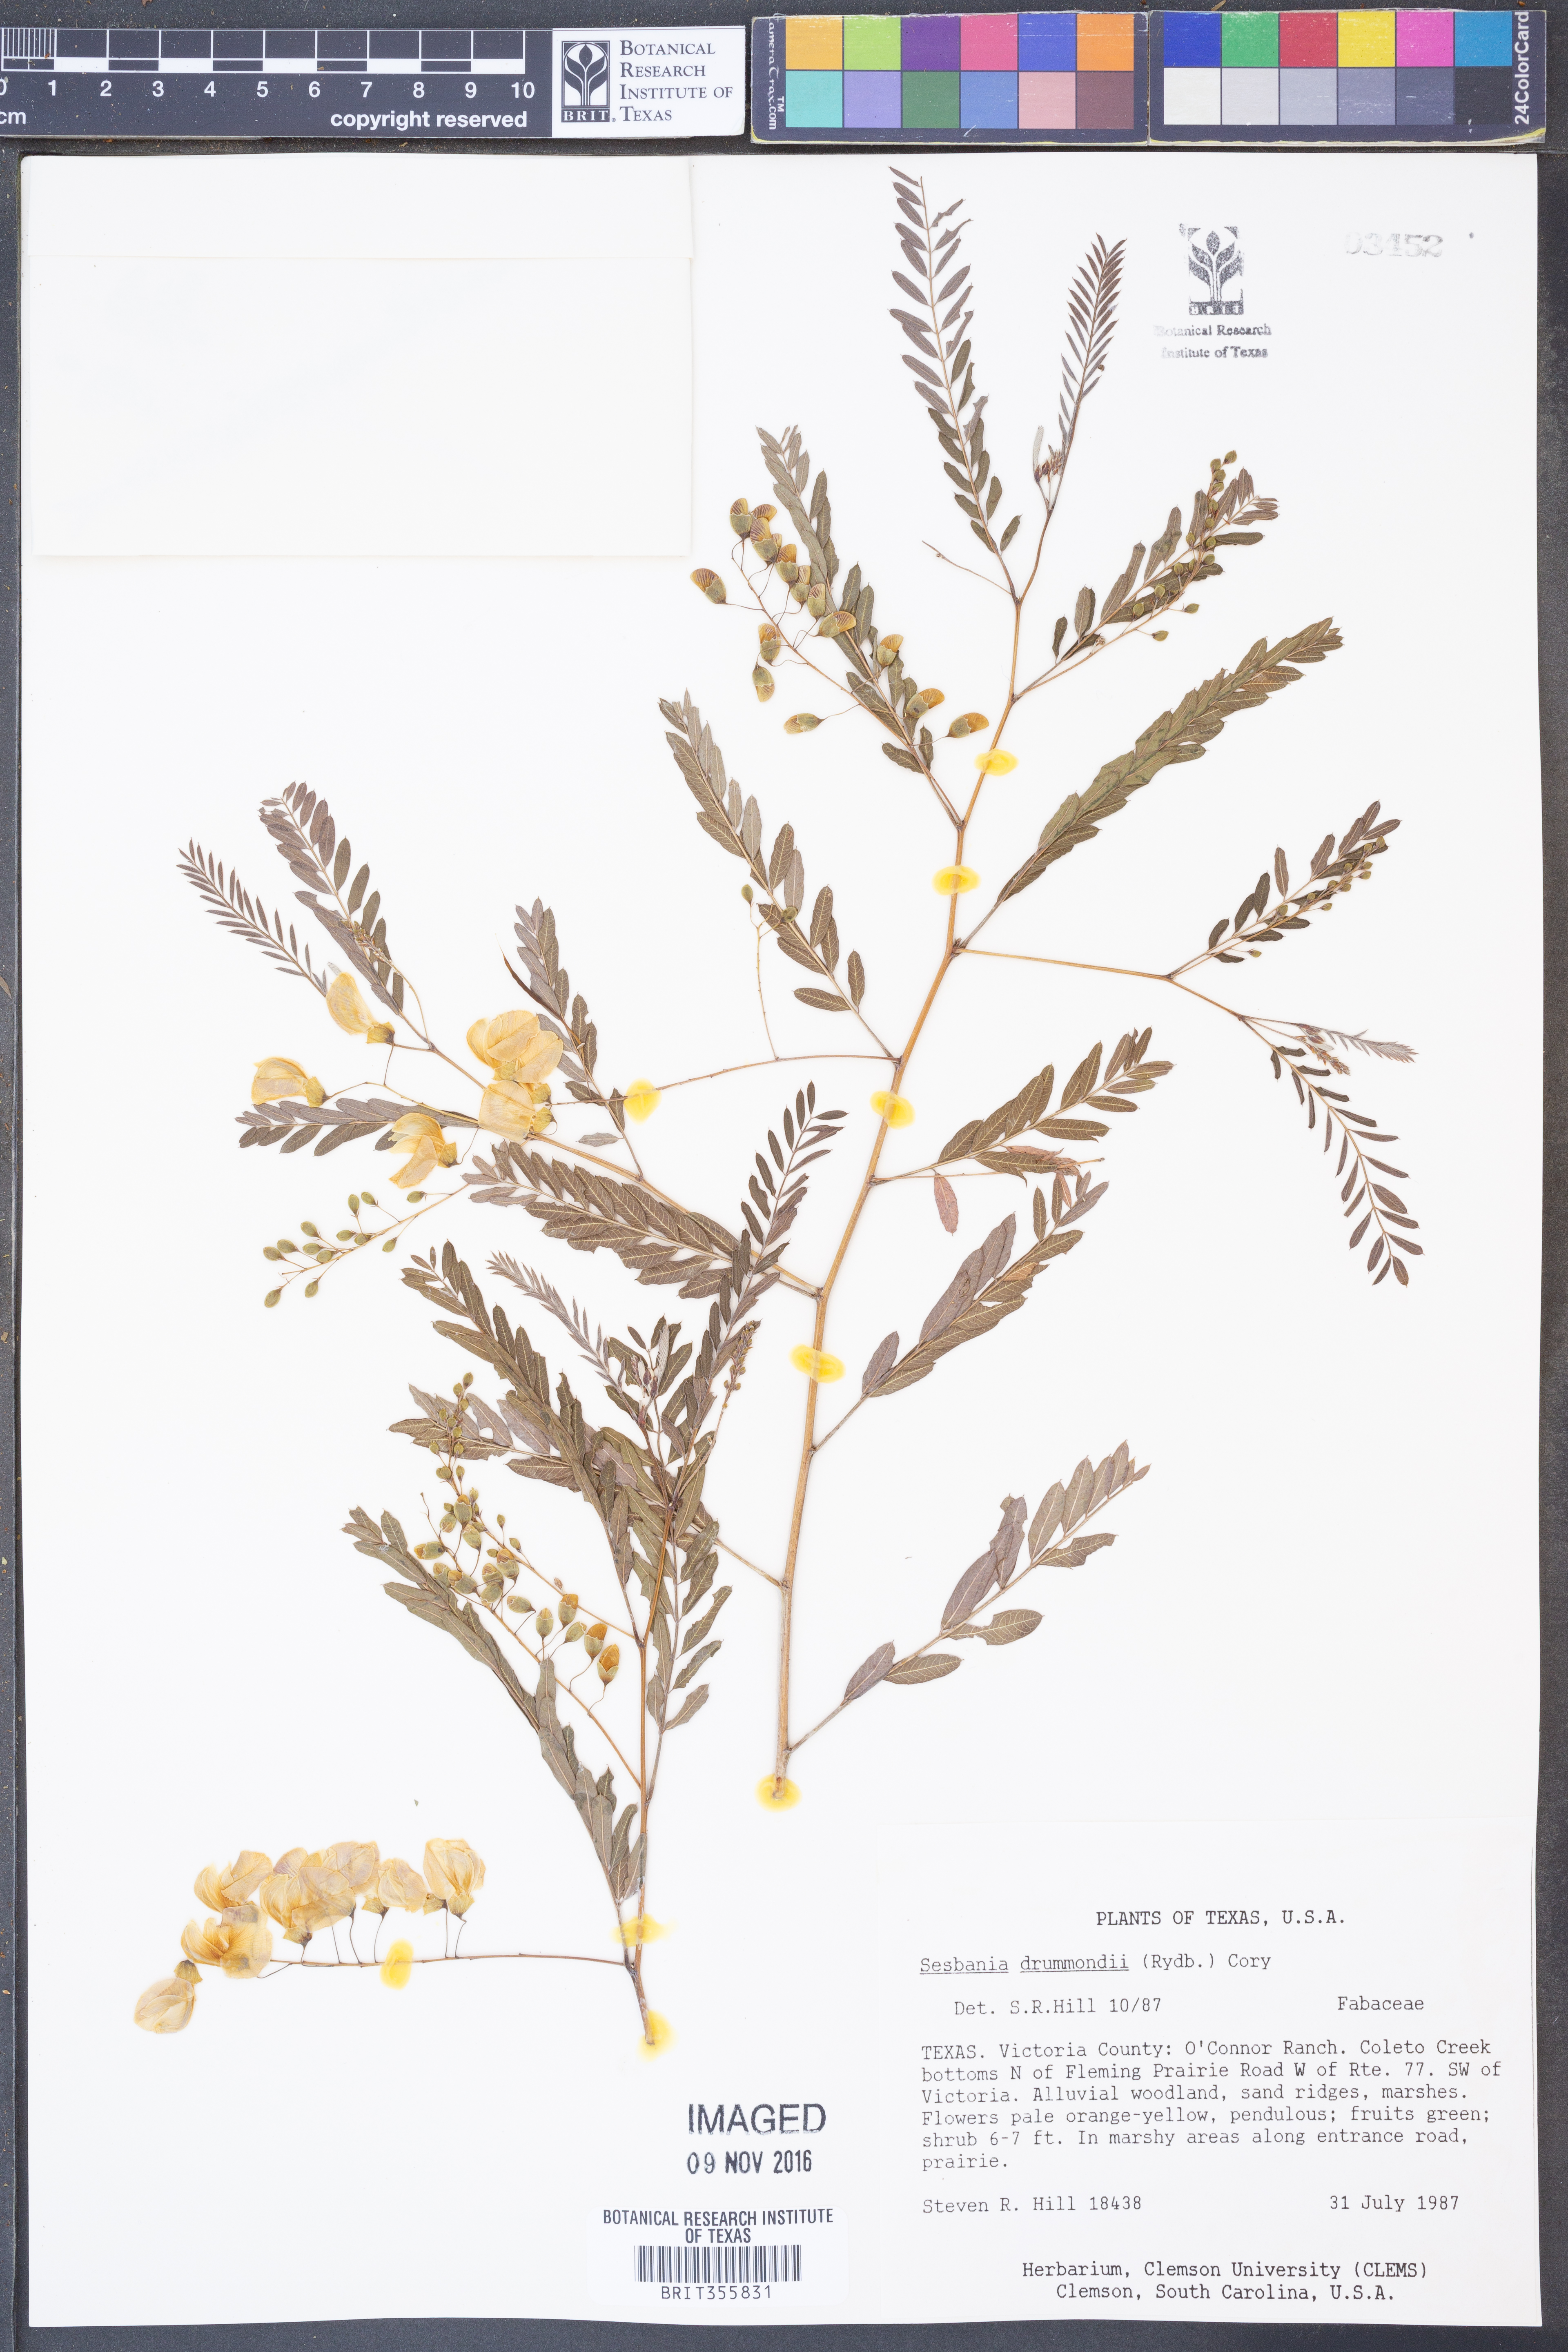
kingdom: Plantae
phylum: Tracheophyta
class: Magnoliopsida
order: Fabales
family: Fabaceae
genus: Sesbania
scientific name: Sesbania drummondii
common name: Poison-bean
